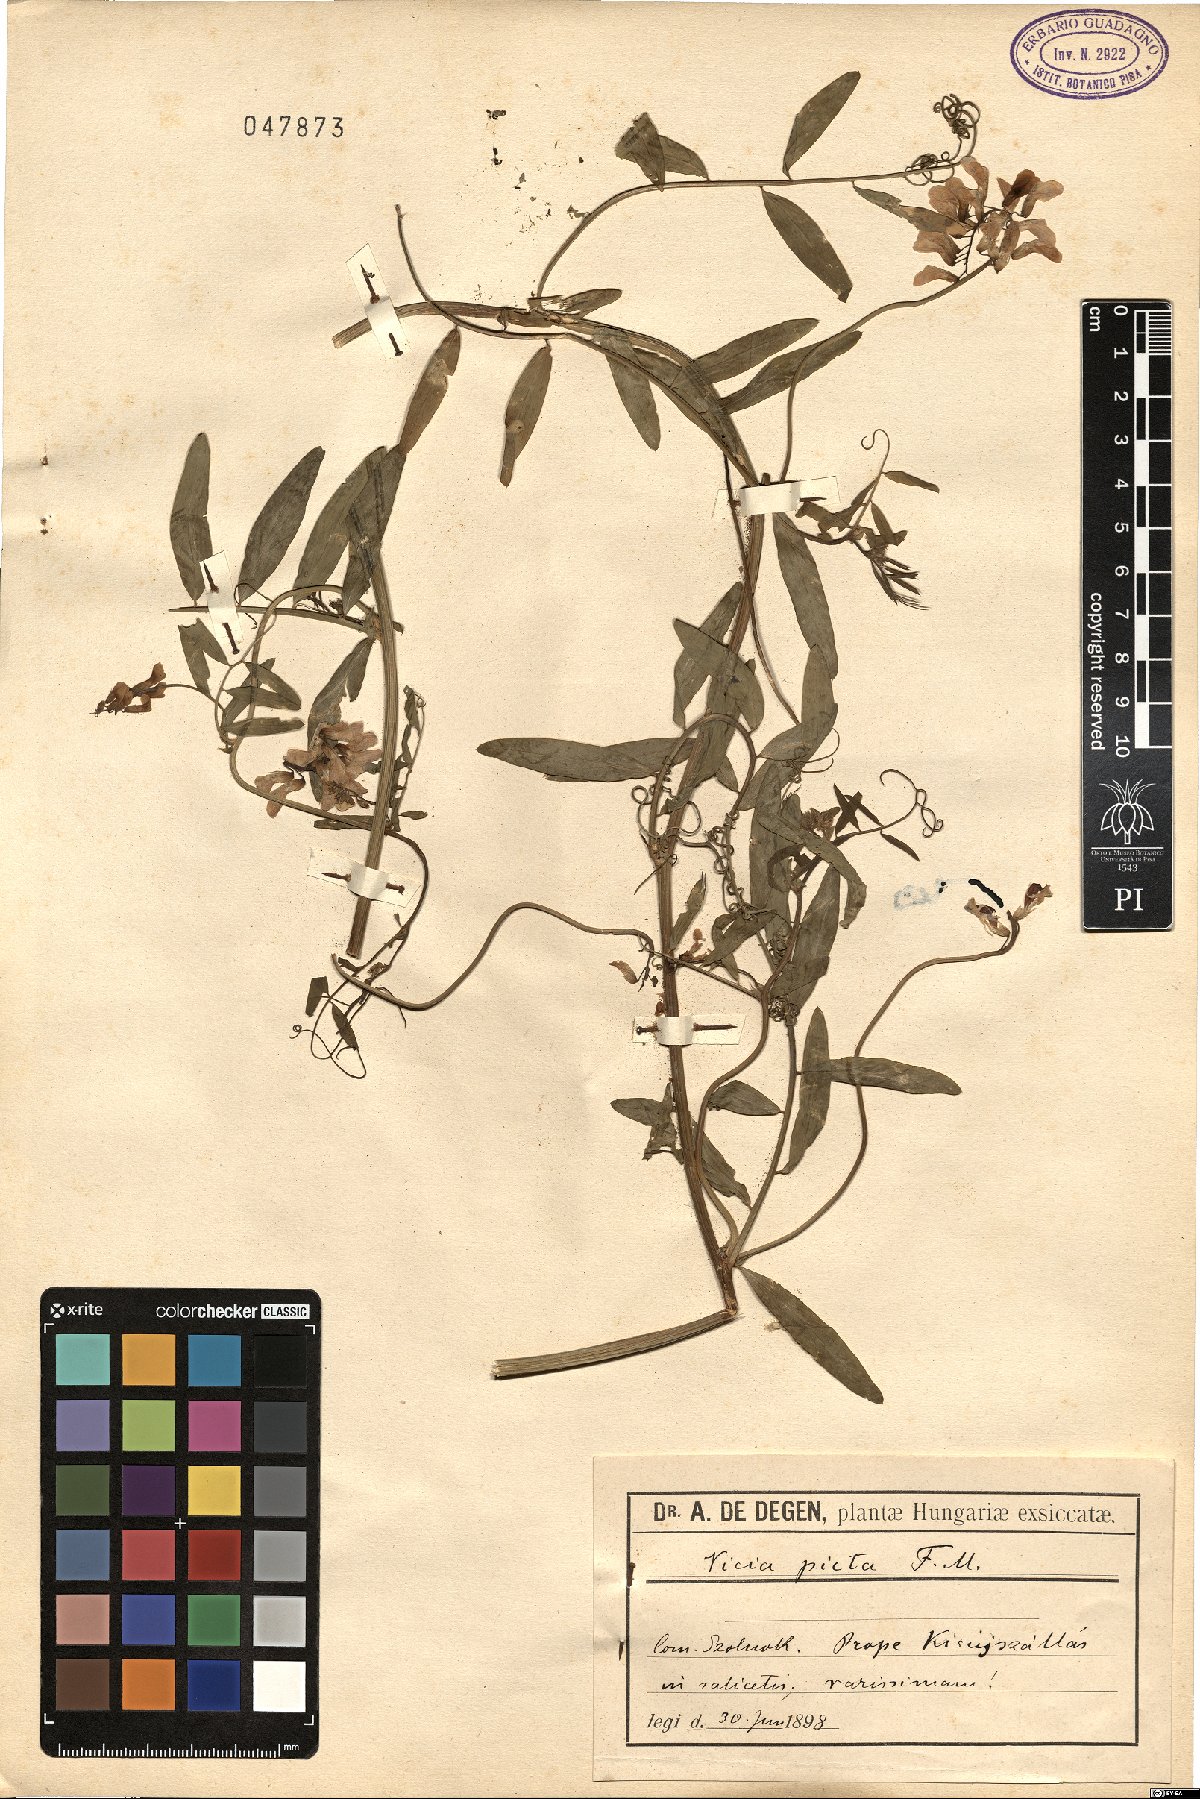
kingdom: Plantae
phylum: Tracheophyta
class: Magnoliopsida
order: Fabales
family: Fabaceae
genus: Vicia
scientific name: Vicia biennis
